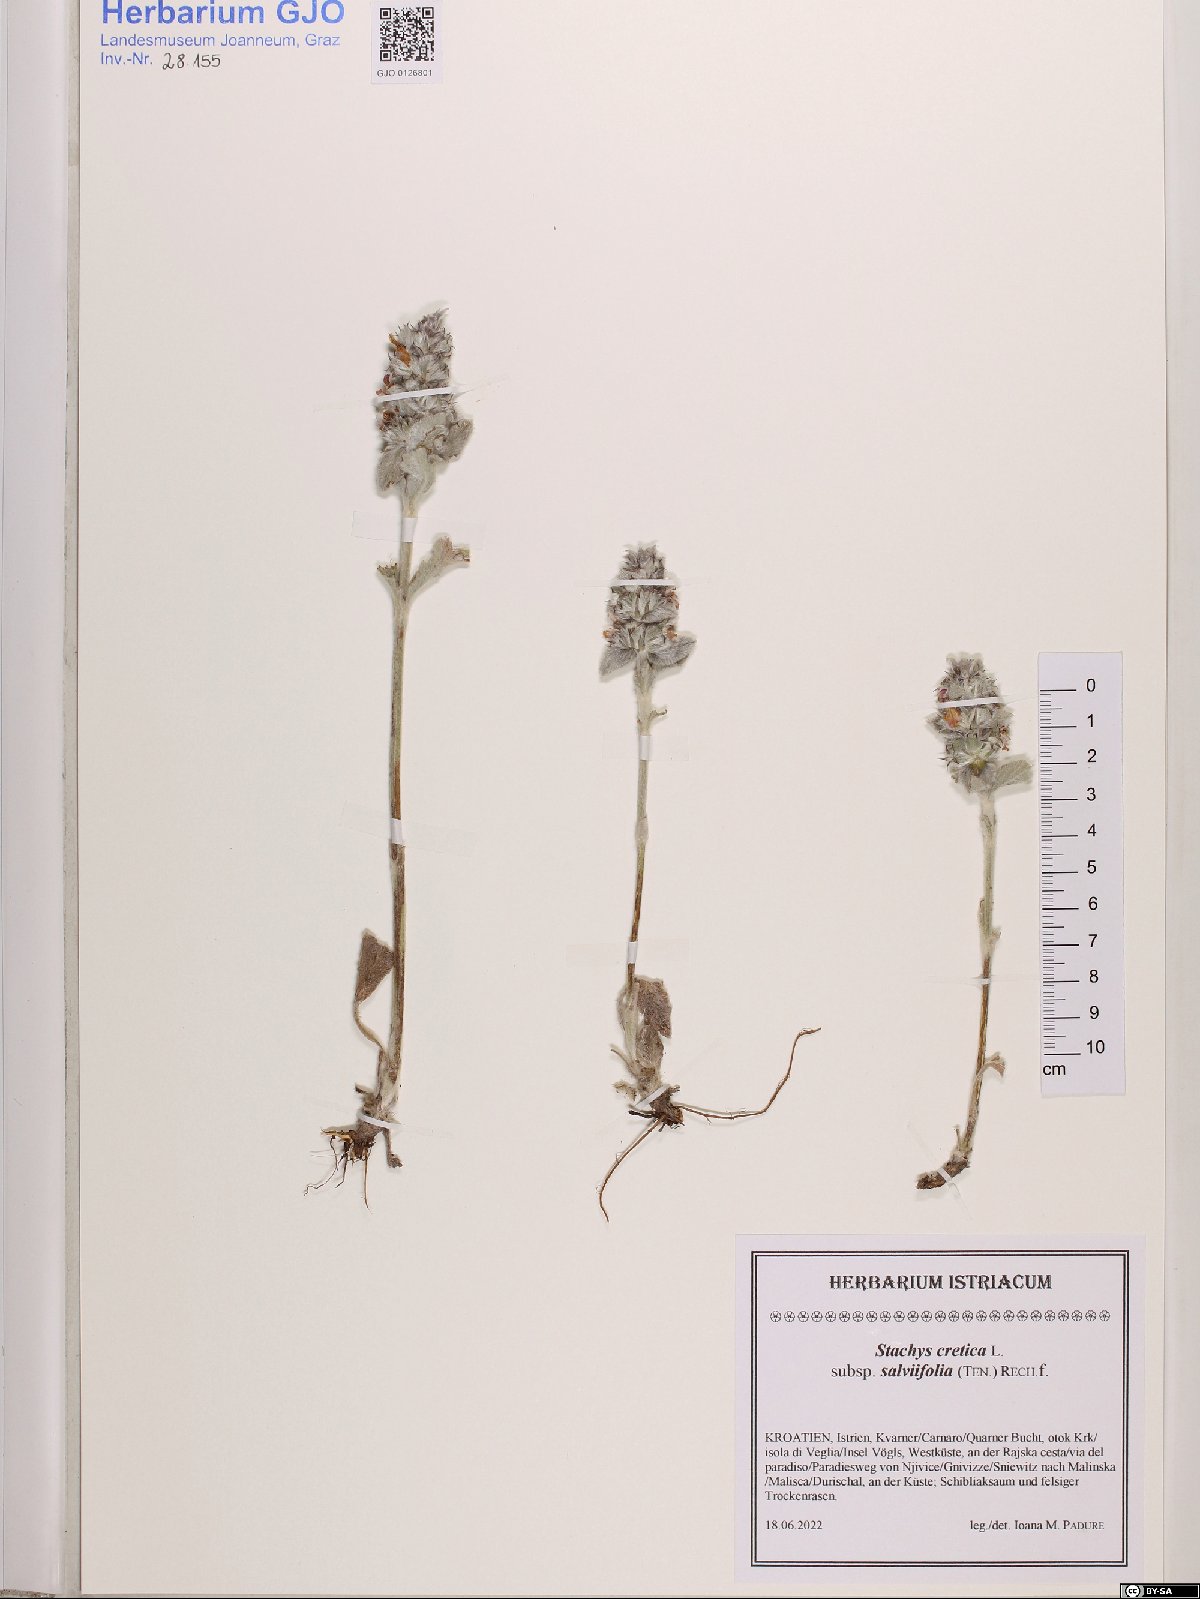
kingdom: Plantae
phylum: Tracheophyta
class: Magnoliopsida
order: Lamiales
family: Lamiaceae
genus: Stachys
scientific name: Stachys cretica
